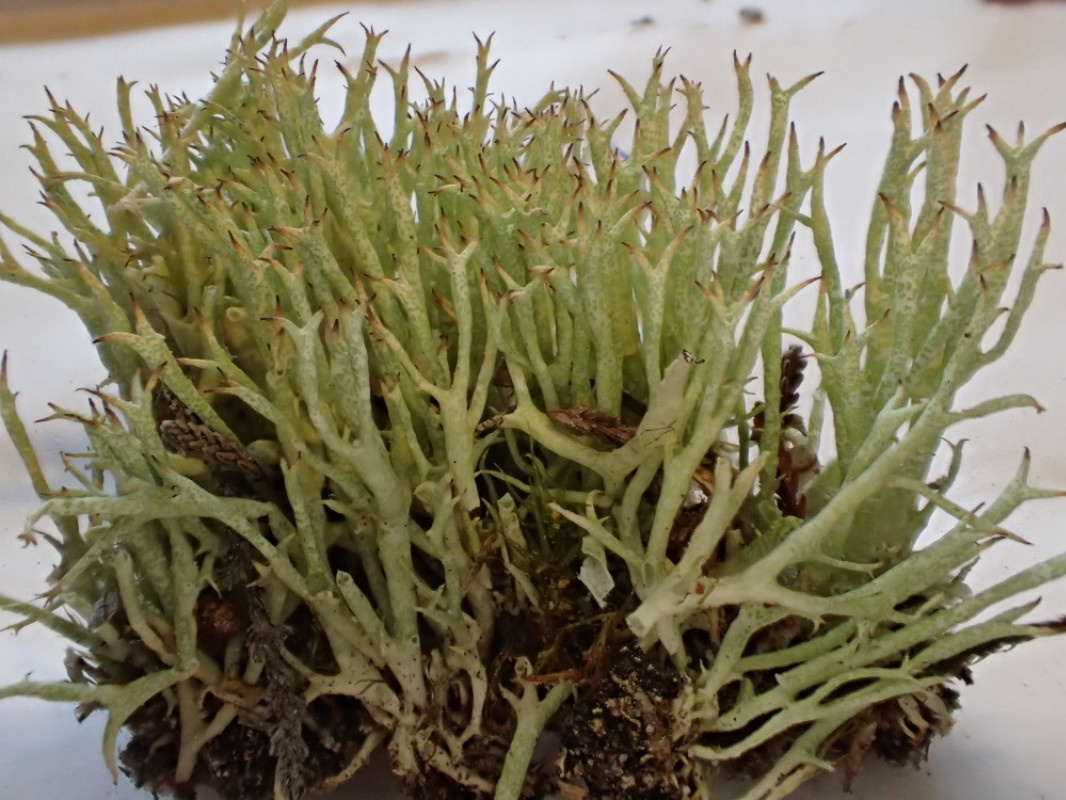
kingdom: Fungi
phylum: Ascomycota
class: Lecanoromycetes
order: Lecanorales
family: Cladoniaceae
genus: Cladonia
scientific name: Cladonia uncialis
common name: pigget bægerlav
